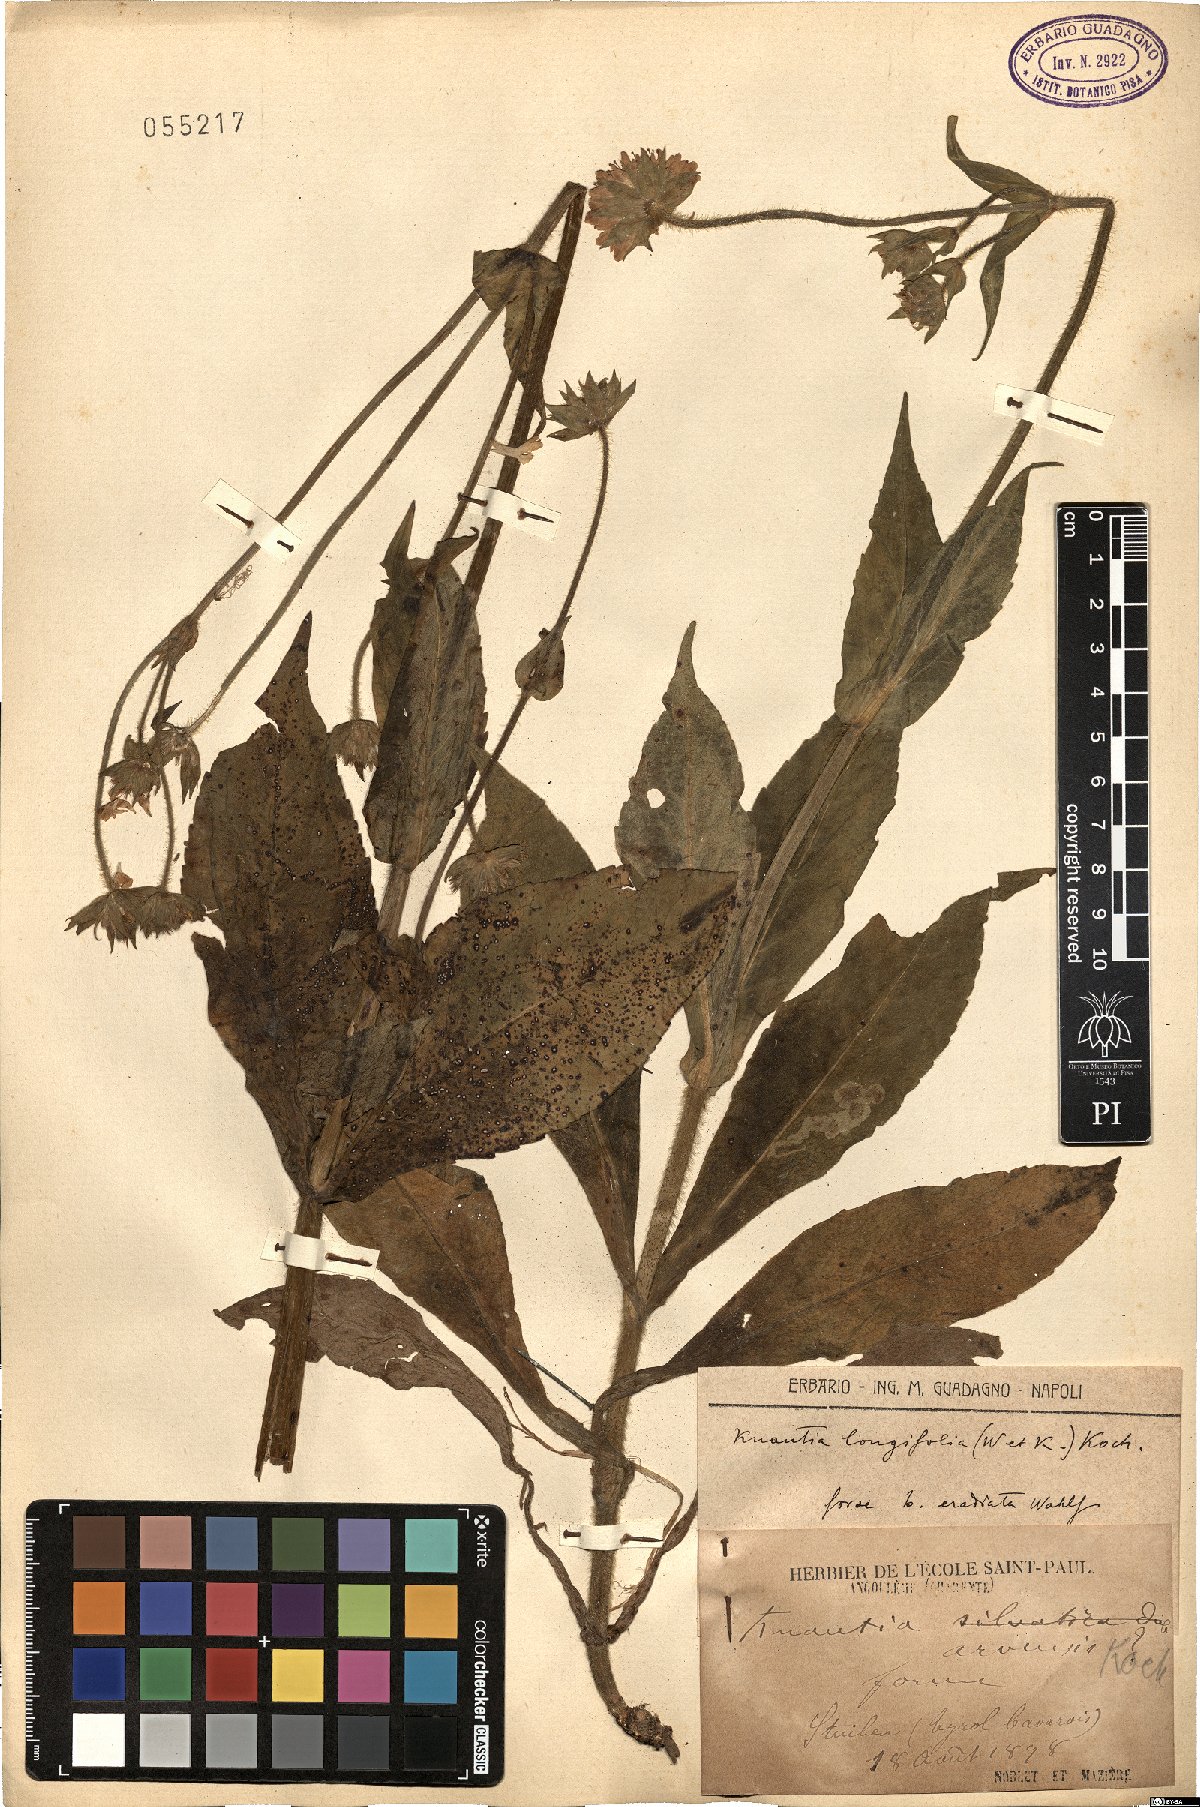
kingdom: Plantae
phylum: Tracheophyta
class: Magnoliopsida
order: Dipsacales
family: Caprifoliaceae
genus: Knautia
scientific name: Knautia longifolia
